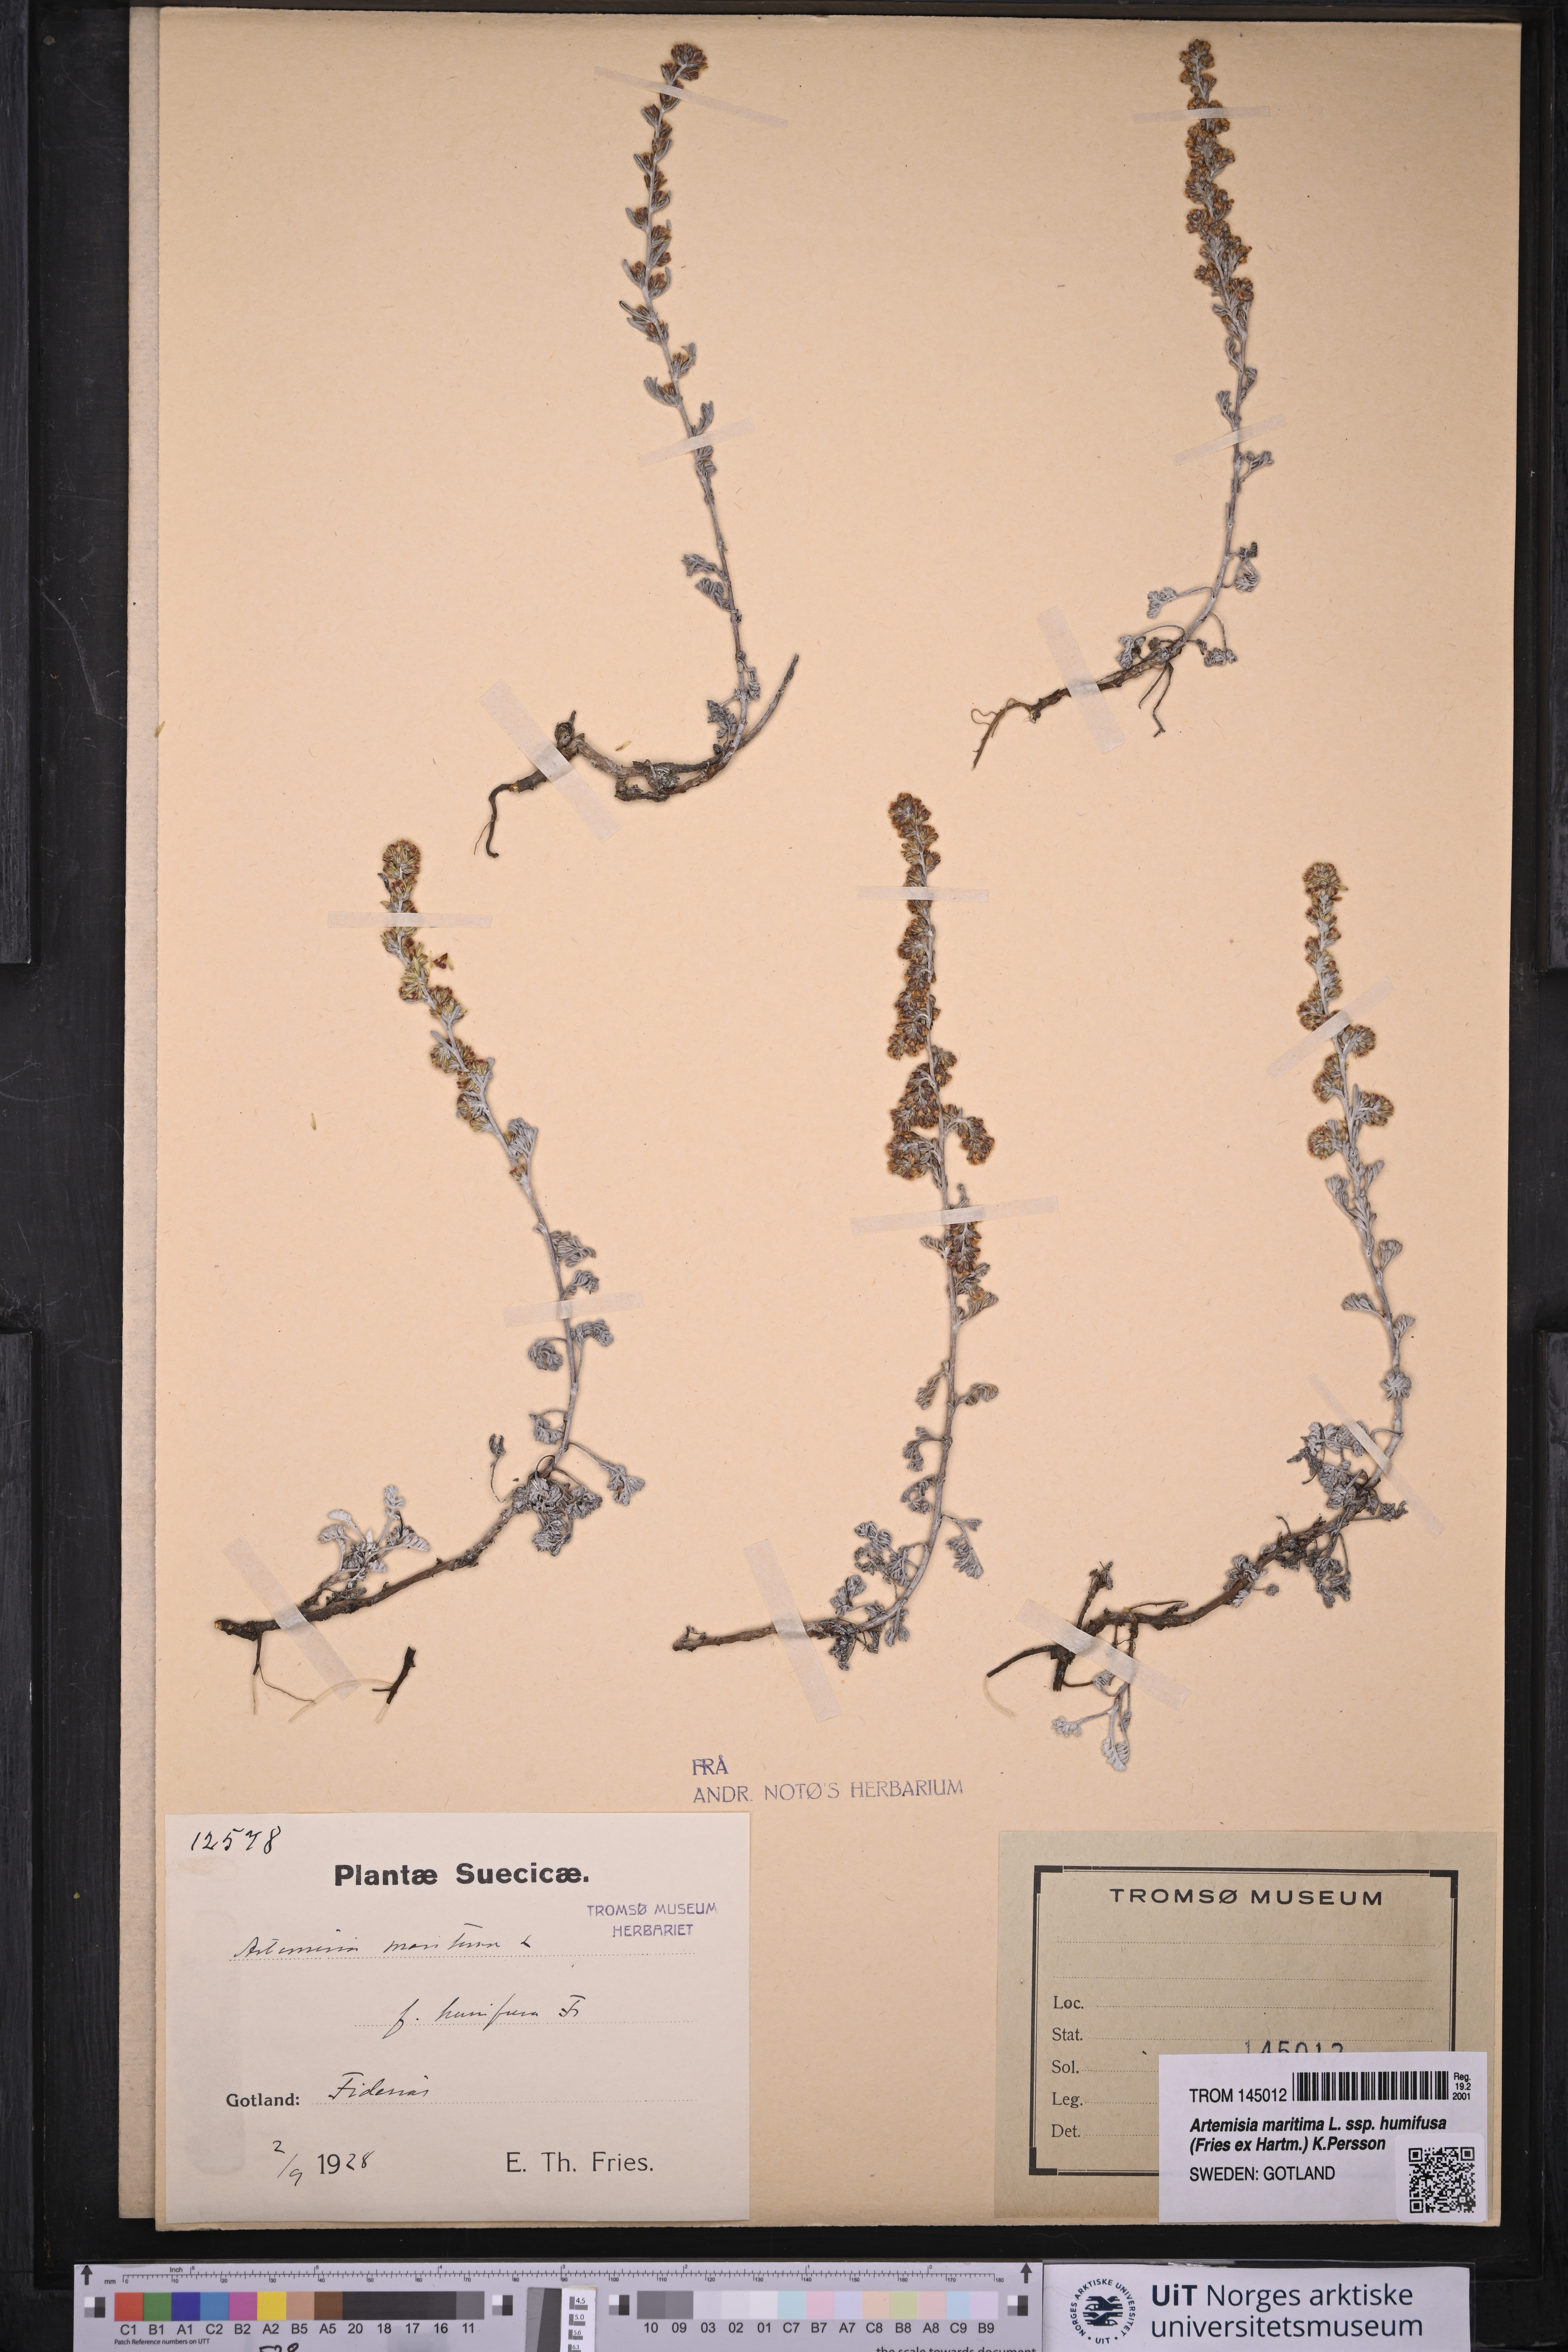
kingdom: Plantae
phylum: Tracheophyta
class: Magnoliopsida
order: Asterales
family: Asteraceae
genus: Artemisia
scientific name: Artemisia maritima
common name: Wormseed
